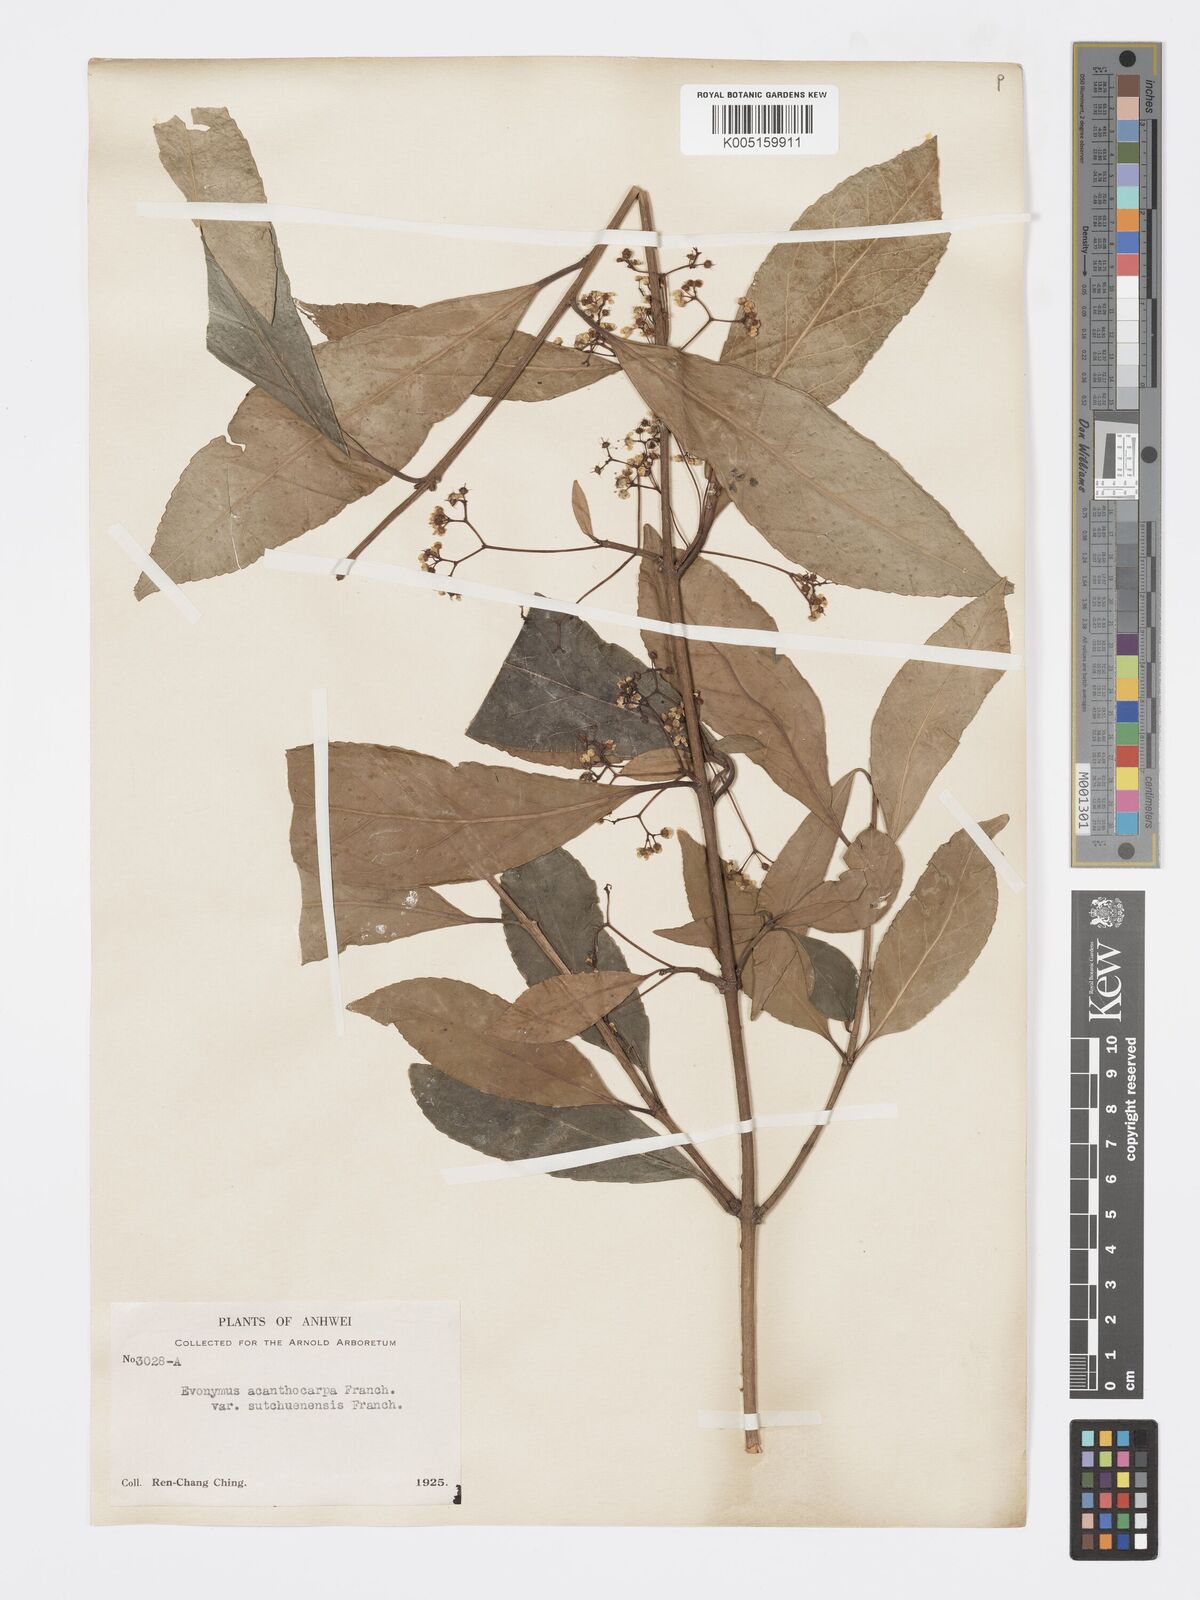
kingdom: Plantae
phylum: Tracheophyta
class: Magnoliopsida
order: Celastrales
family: Celastraceae
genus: Euonymus
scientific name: Euonymus acanthocarpus
